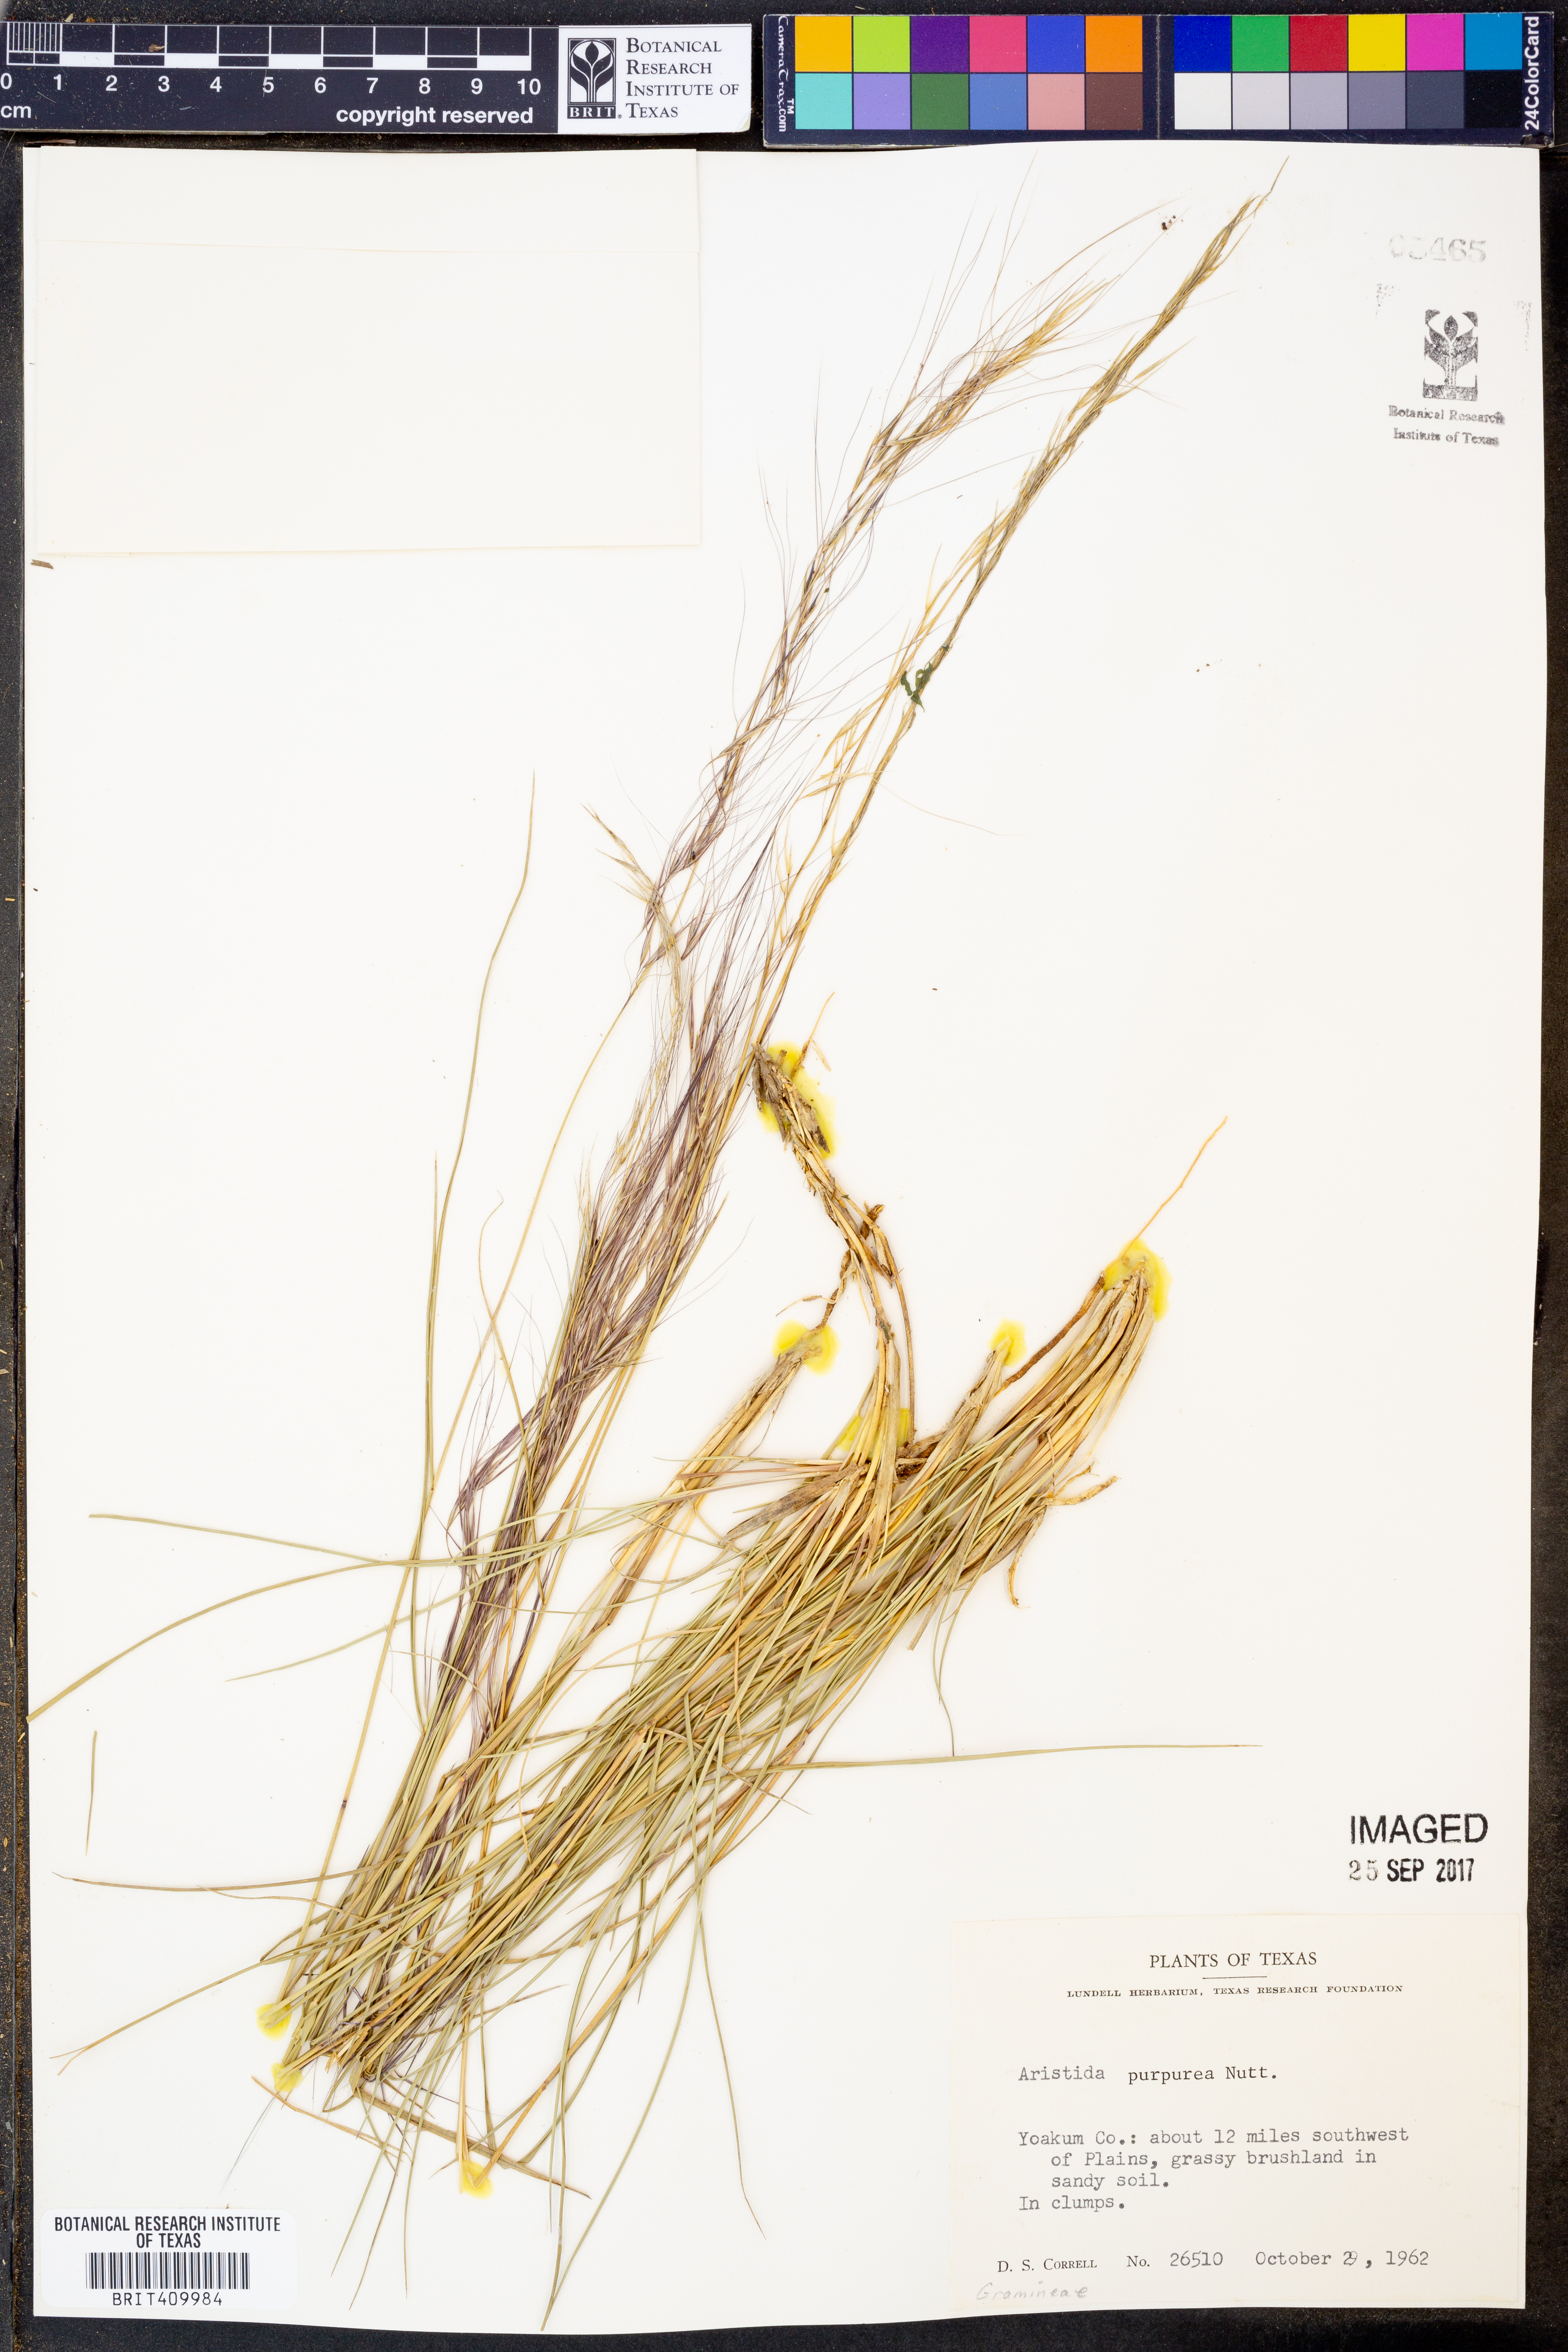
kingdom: Plantae
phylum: Tracheophyta
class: Liliopsida
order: Poales
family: Poaceae
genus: Aristida
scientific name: Aristida purpurea
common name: Purple threeawn
